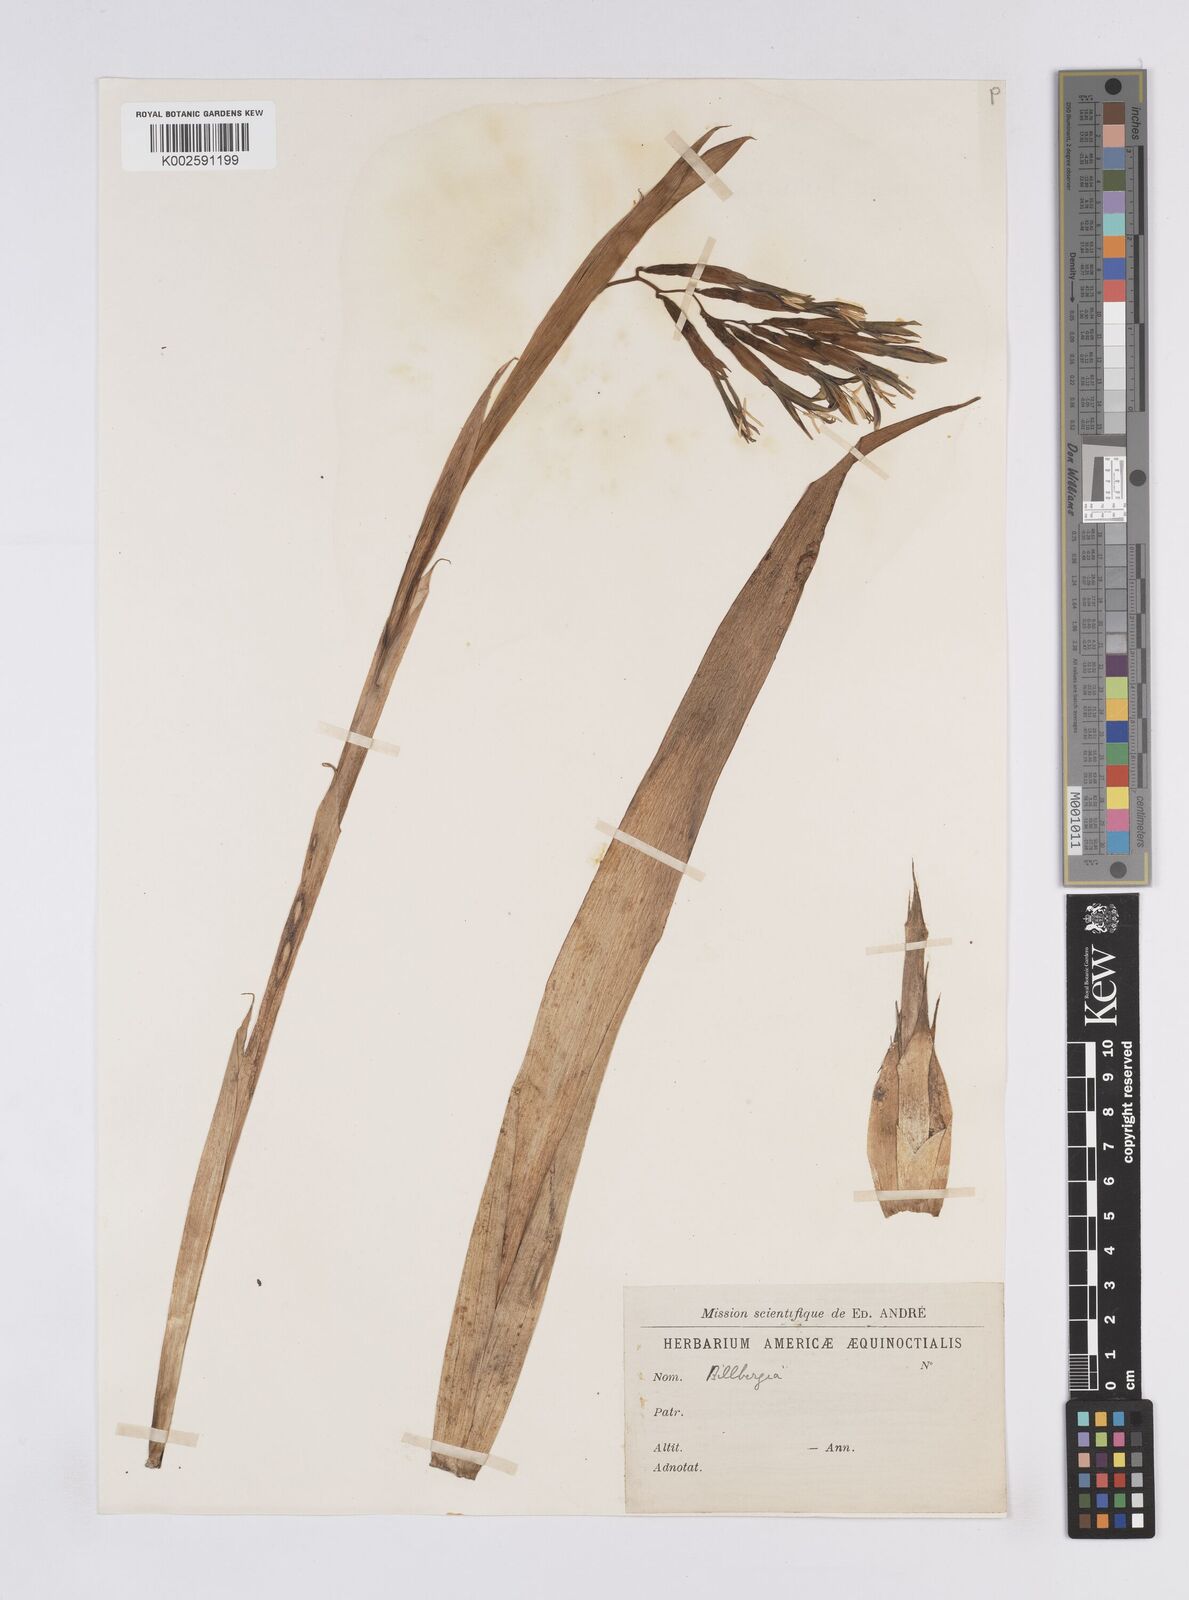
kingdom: Plantae
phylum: Tracheophyta
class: Liliopsida
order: Poales
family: Bromeliaceae
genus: Billbergia
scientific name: Billbergia
